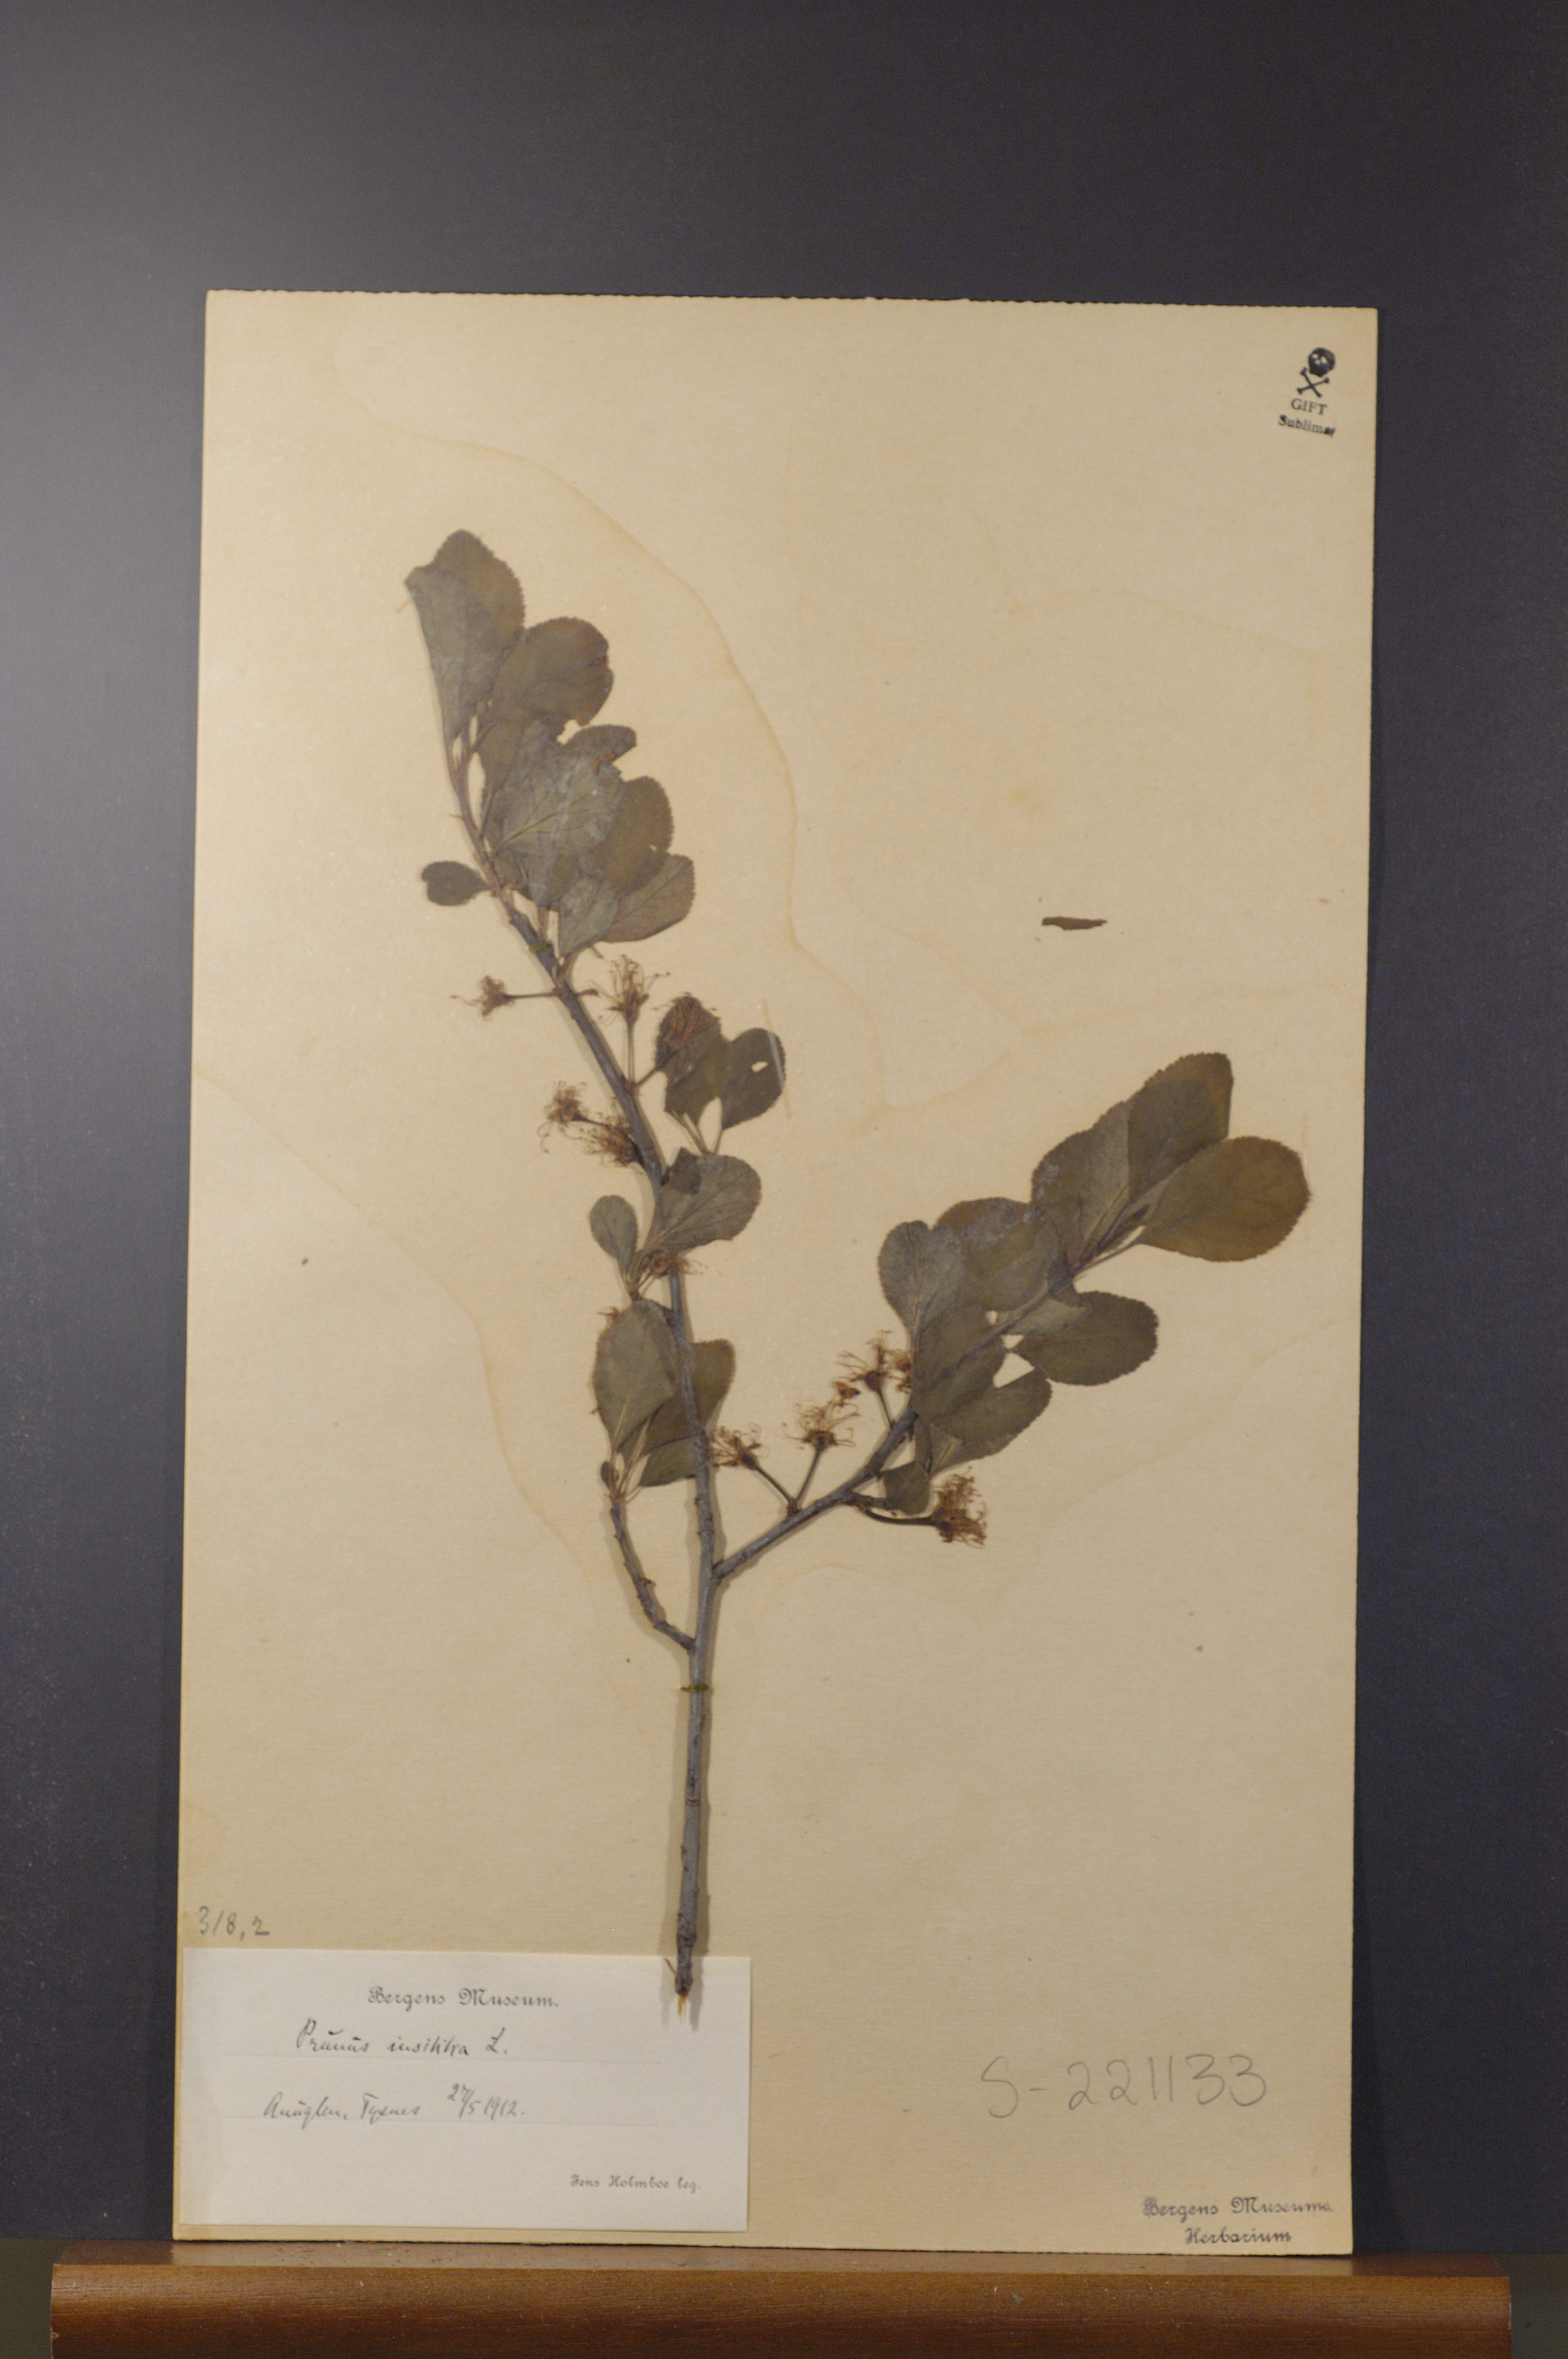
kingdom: Plantae
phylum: Tracheophyta
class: Magnoliopsida
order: Rosales
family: Rosaceae
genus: Prunus
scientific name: Prunus domestica
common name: Wild plum
